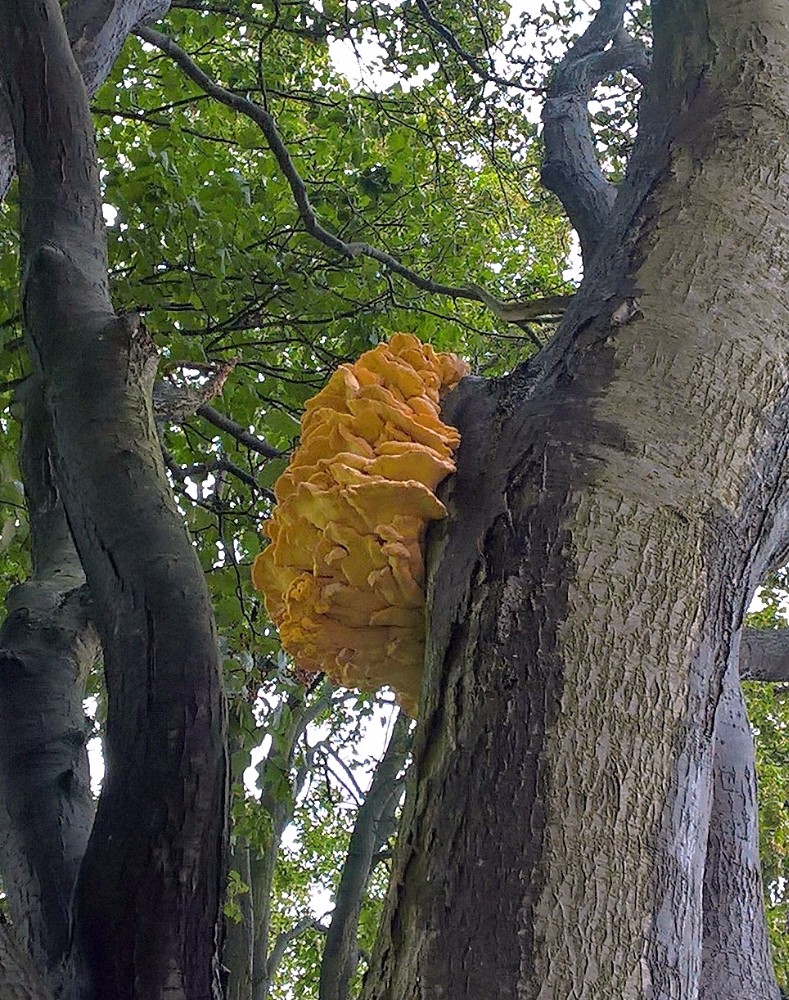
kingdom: Fungi
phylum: Basidiomycota
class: Agaricomycetes
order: Polyporales
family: Laetiporaceae
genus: Laetiporus
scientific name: Laetiporus sulphureus
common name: svovlporesvamp
